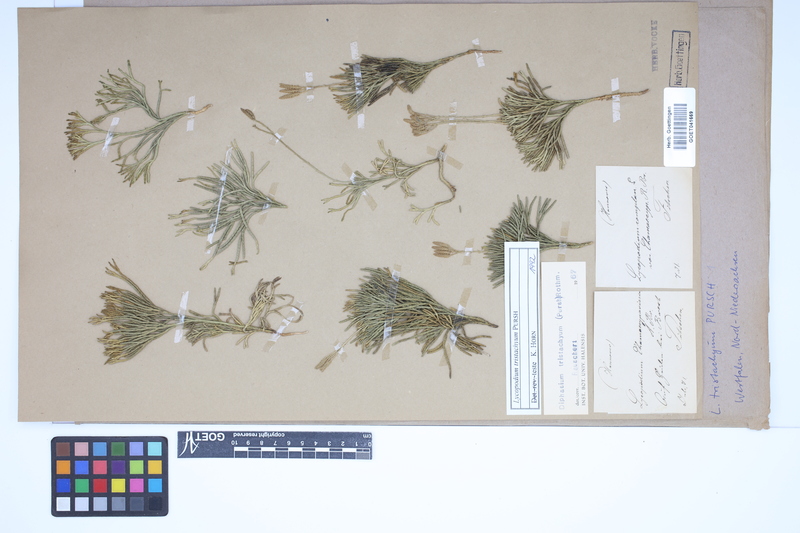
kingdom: Plantae
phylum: Tracheophyta
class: Lycopodiopsida
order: Lycopodiales
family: Lycopodiaceae
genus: Diphasiastrum
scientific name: Diphasiastrum tristachyum
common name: Blue ground-cedar
